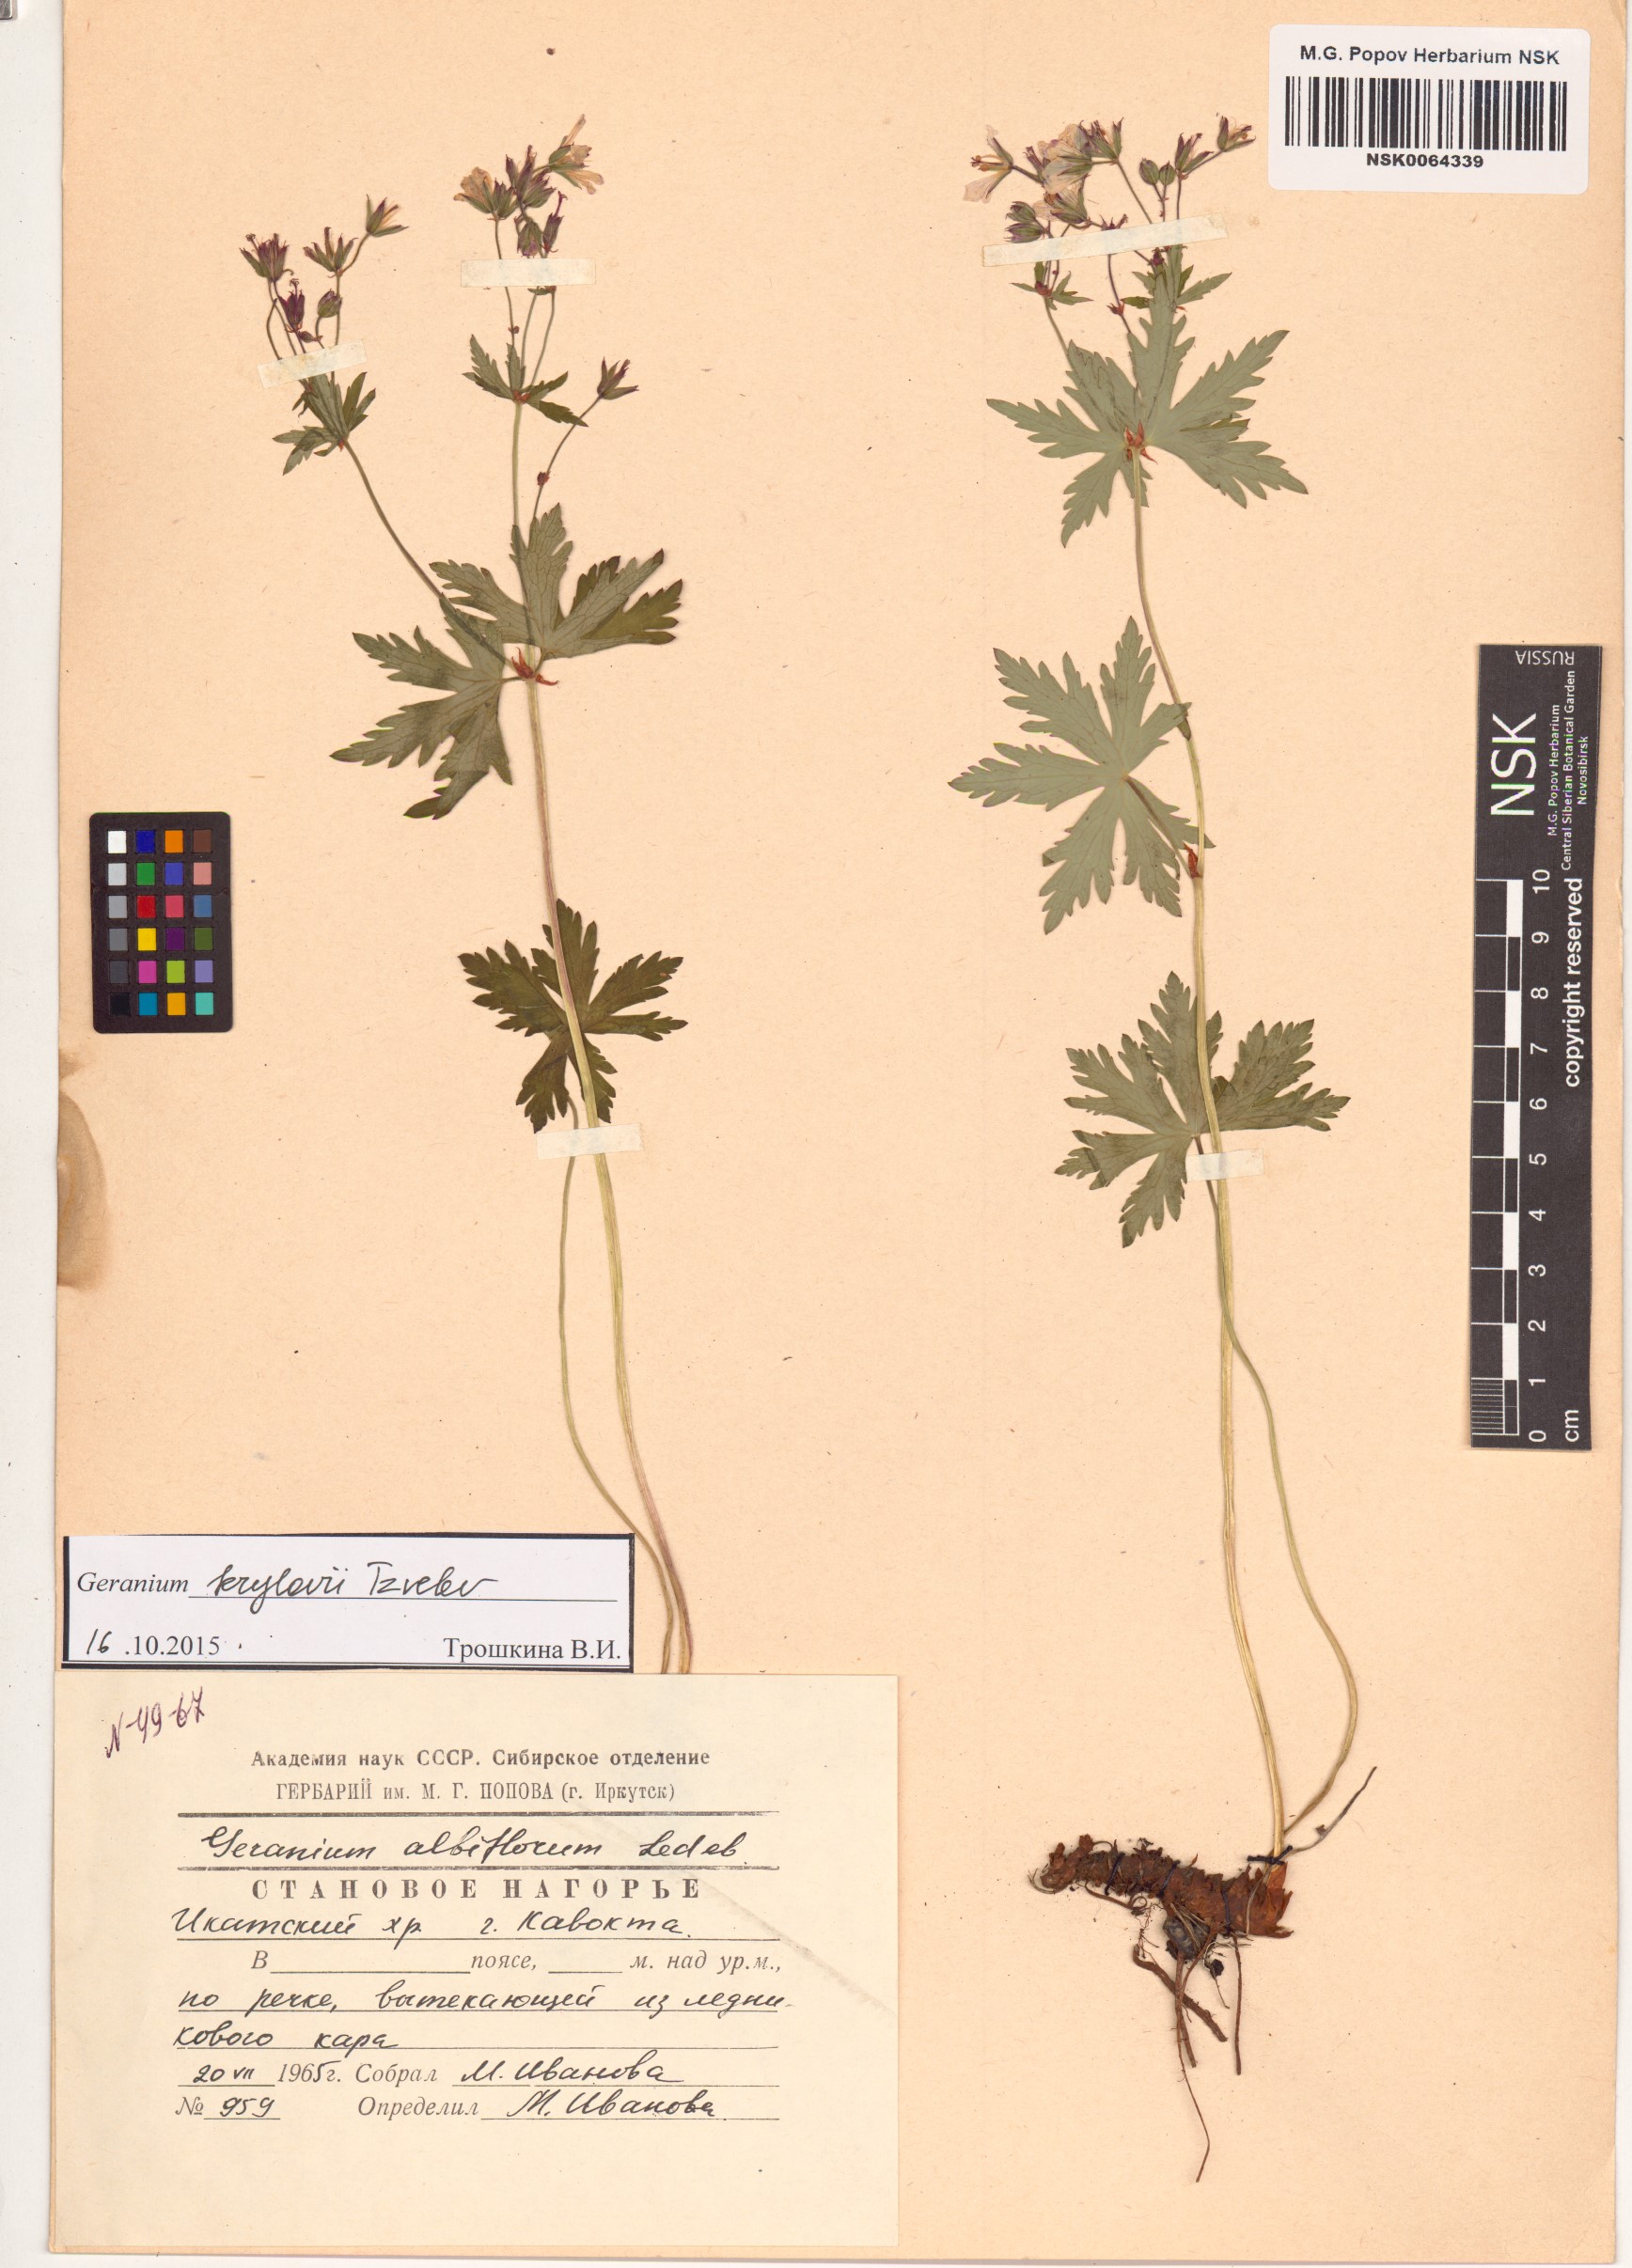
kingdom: Plantae
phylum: Tracheophyta
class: Magnoliopsida
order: Geraniales
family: Geraniaceae
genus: Geranium
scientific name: Geranium sylvaticum
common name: Wood crane's-bill
